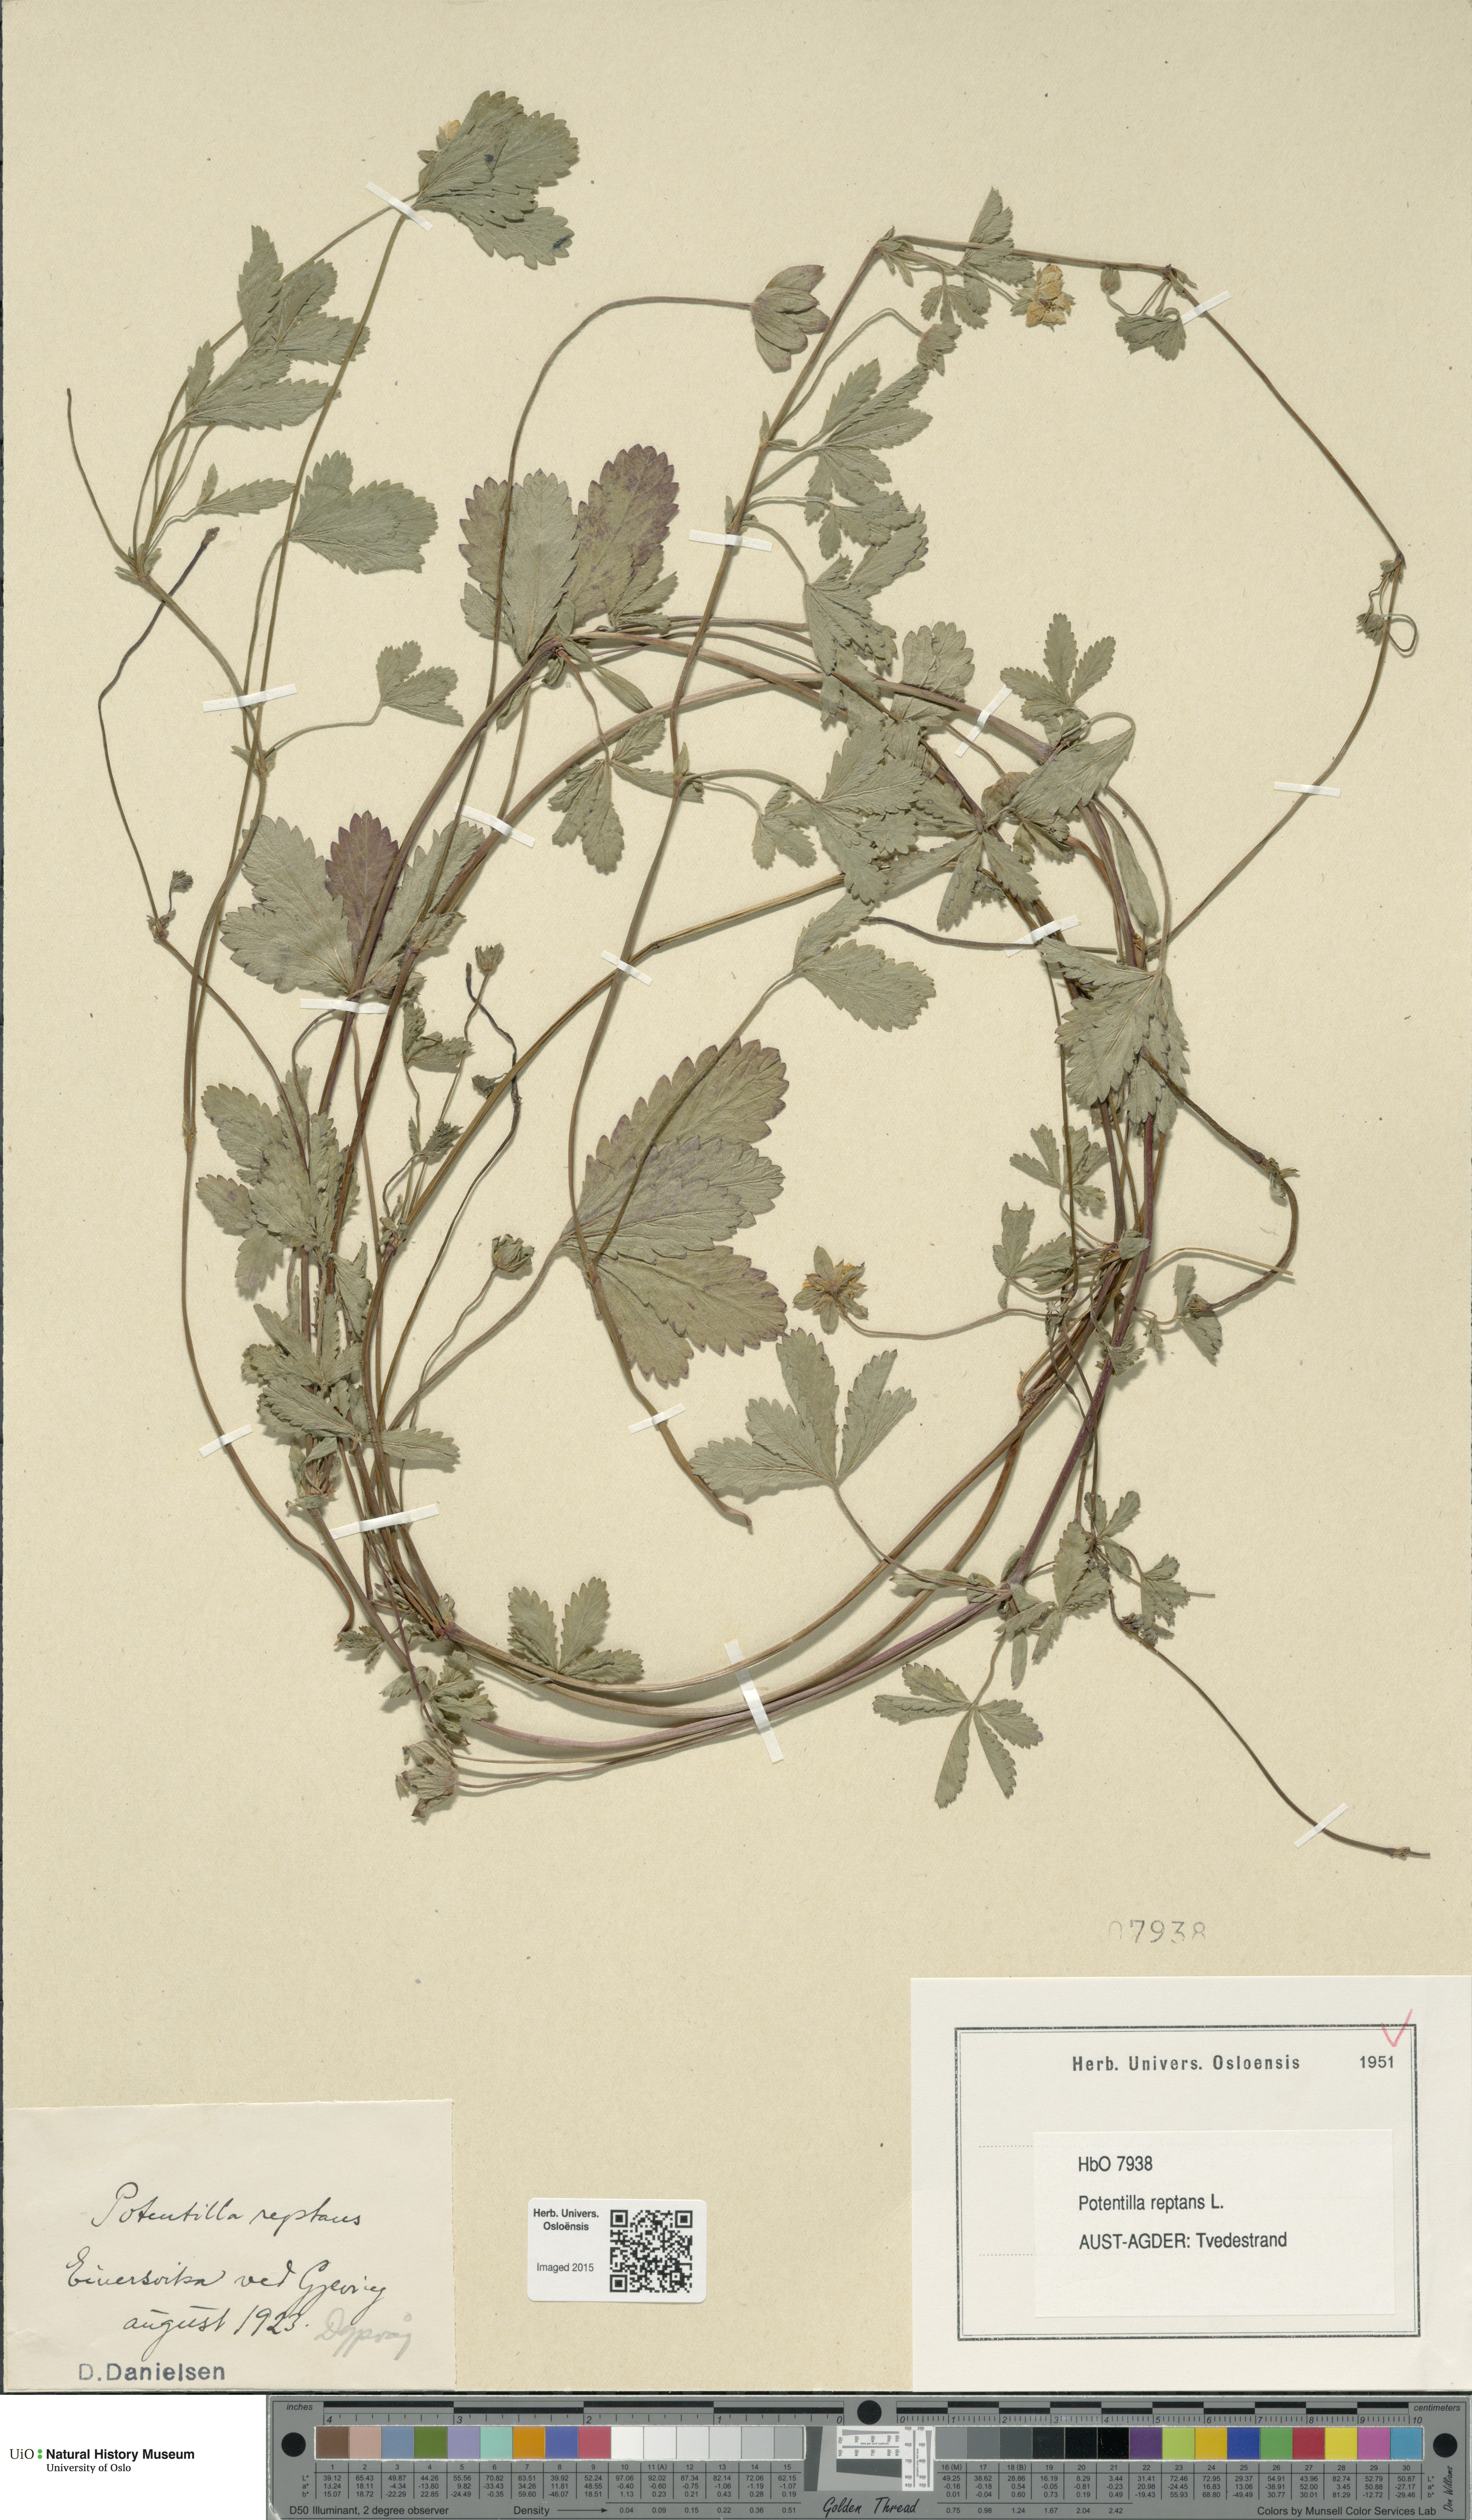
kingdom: Plantae
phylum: Tracheophyta
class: Magnoliopsida
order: Rosales
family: Rosaceae
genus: Potentilla
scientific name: Potentilla reptans
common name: Creeping cinquefoil
